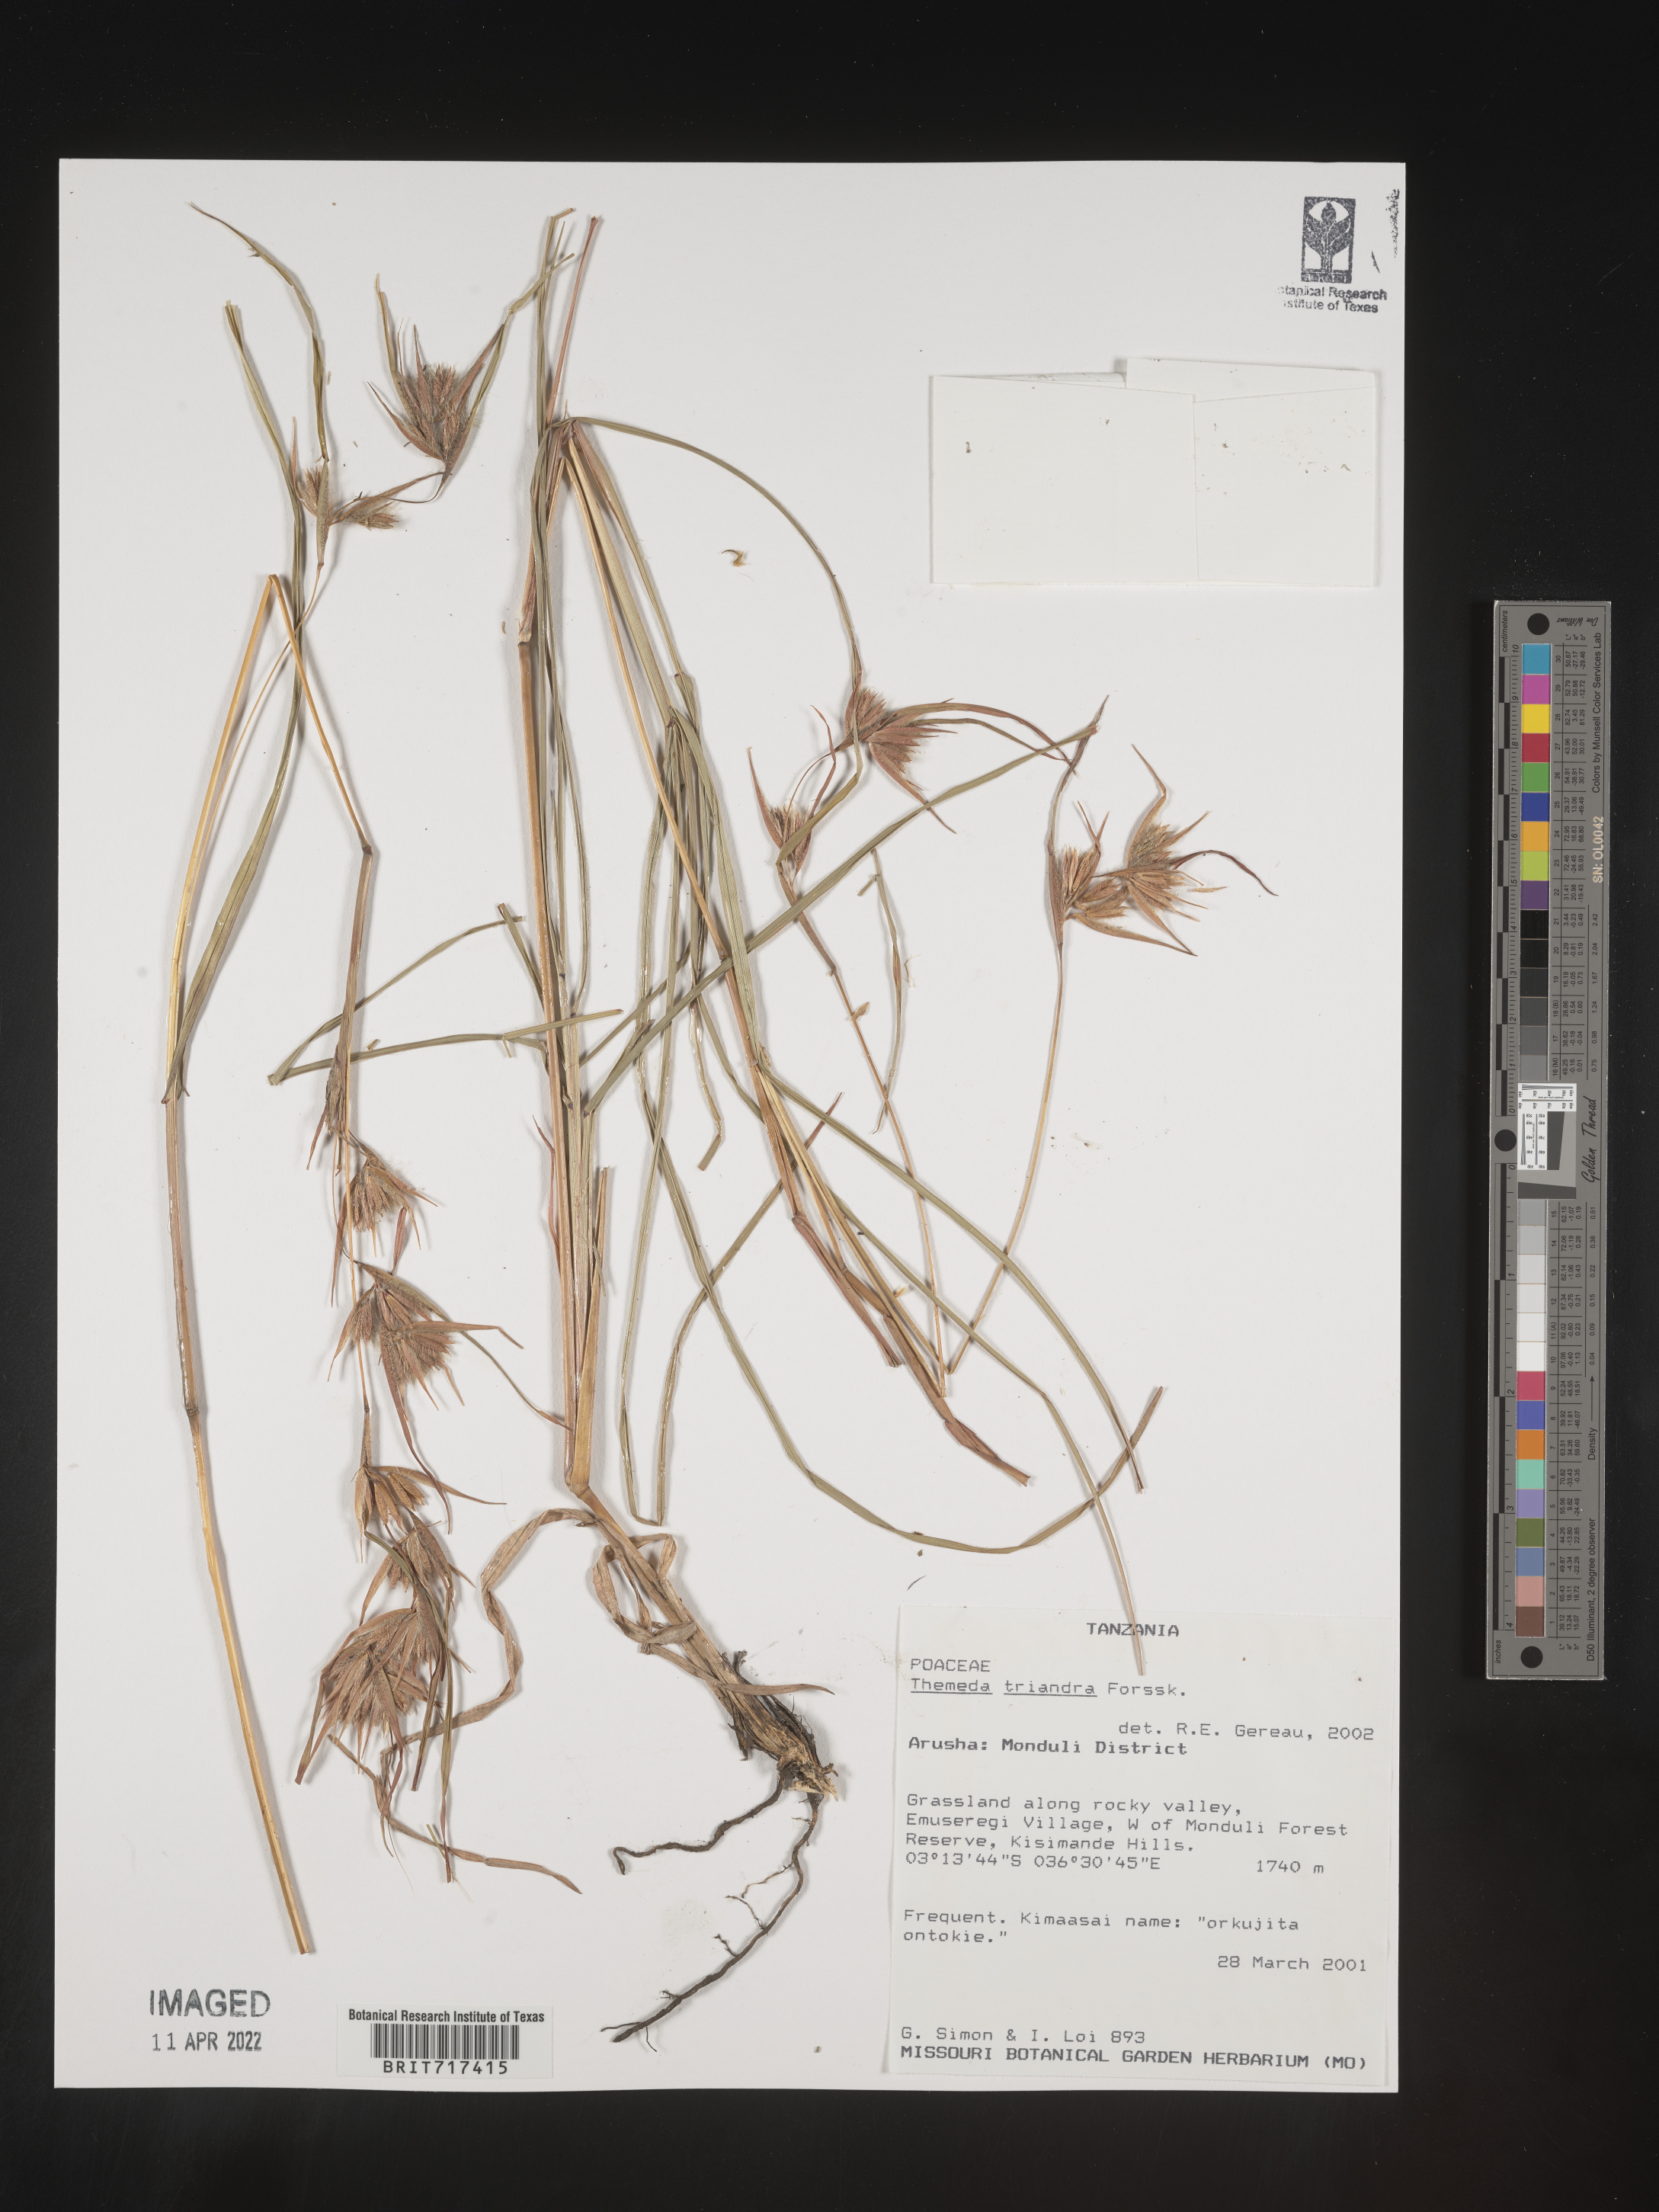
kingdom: Plantae
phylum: Tracheophyta
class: Liliopsida
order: Poales
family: Poaceae
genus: Themeda
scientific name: Themeda
